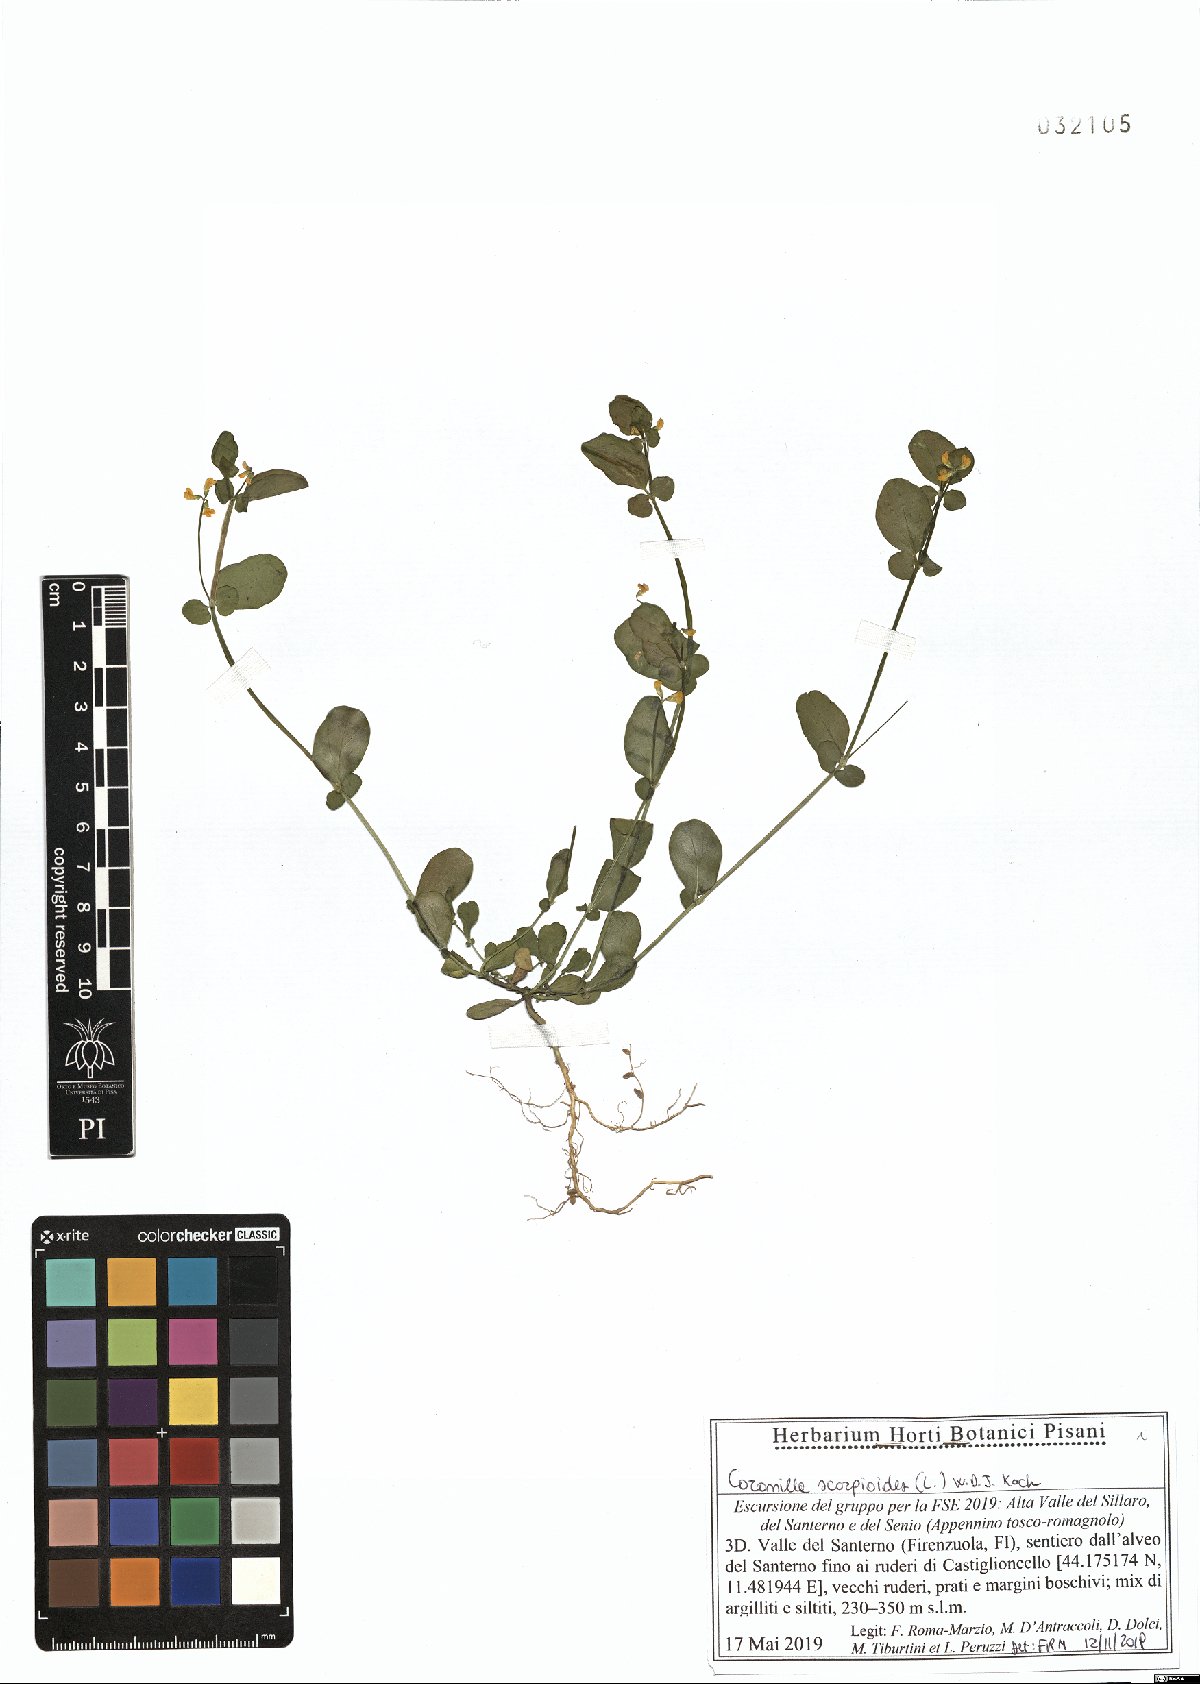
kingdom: Plantae
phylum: Tracheophyta
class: Magnoliopsida
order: Fabales
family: Fabaceae
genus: Coronilla
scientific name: Coronilla scorpioides
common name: Annual scorpion-vetch
